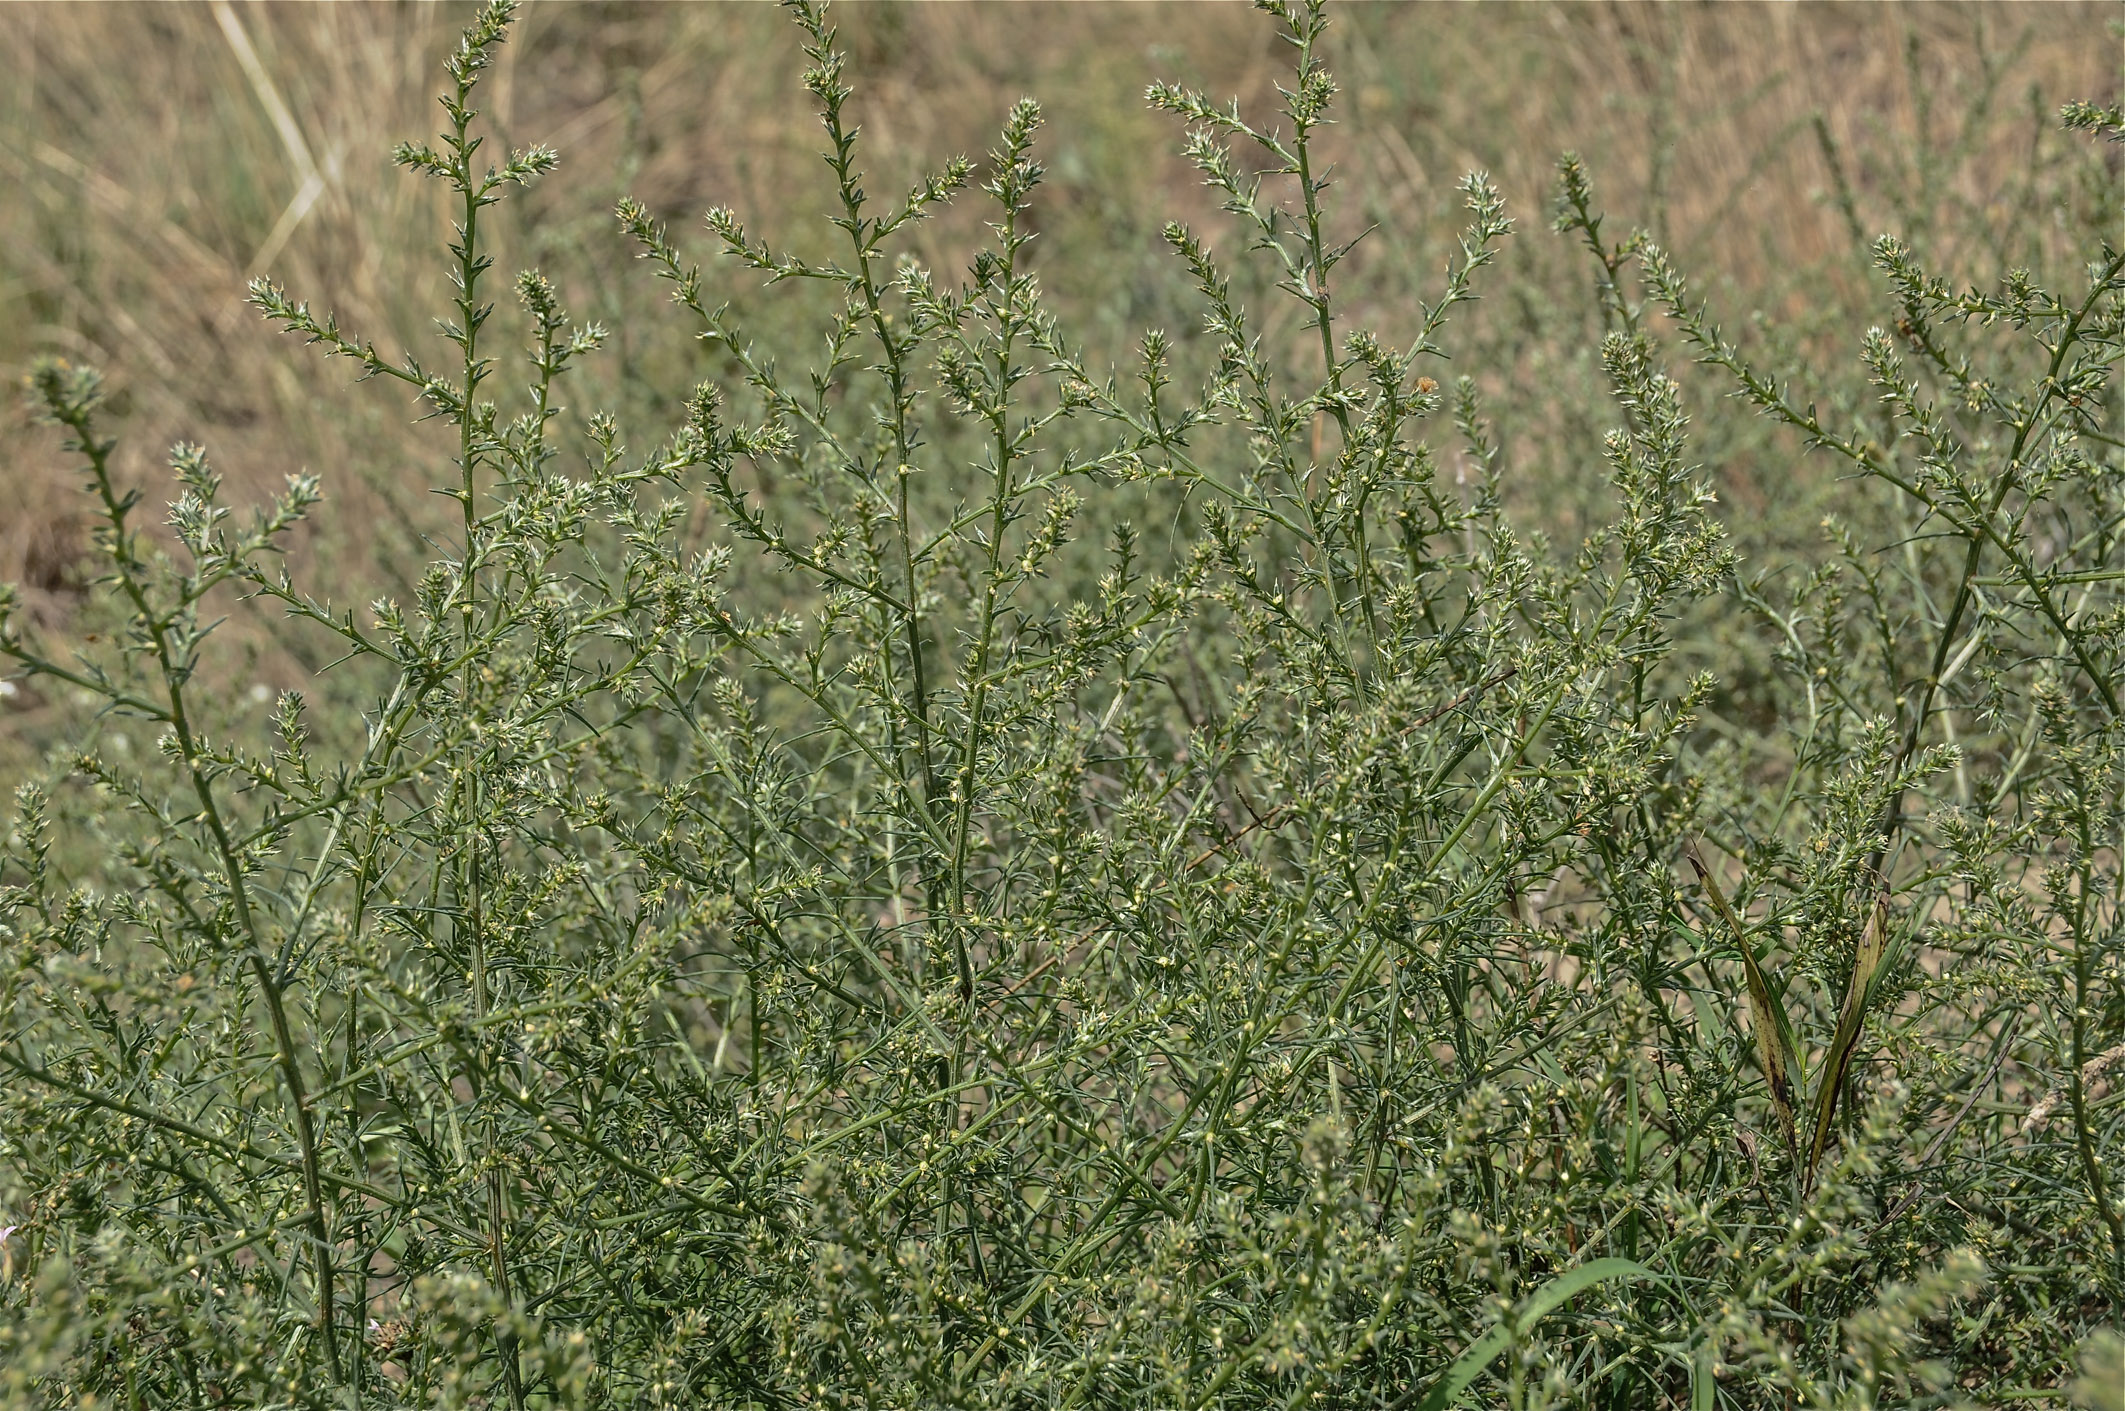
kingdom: Plantae
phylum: Tracheophyta
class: Magnoliopsida
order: Caryophyllales
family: Amaranthaceae
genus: Salsola
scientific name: Salsola tragus
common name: Prickly russian thistle
